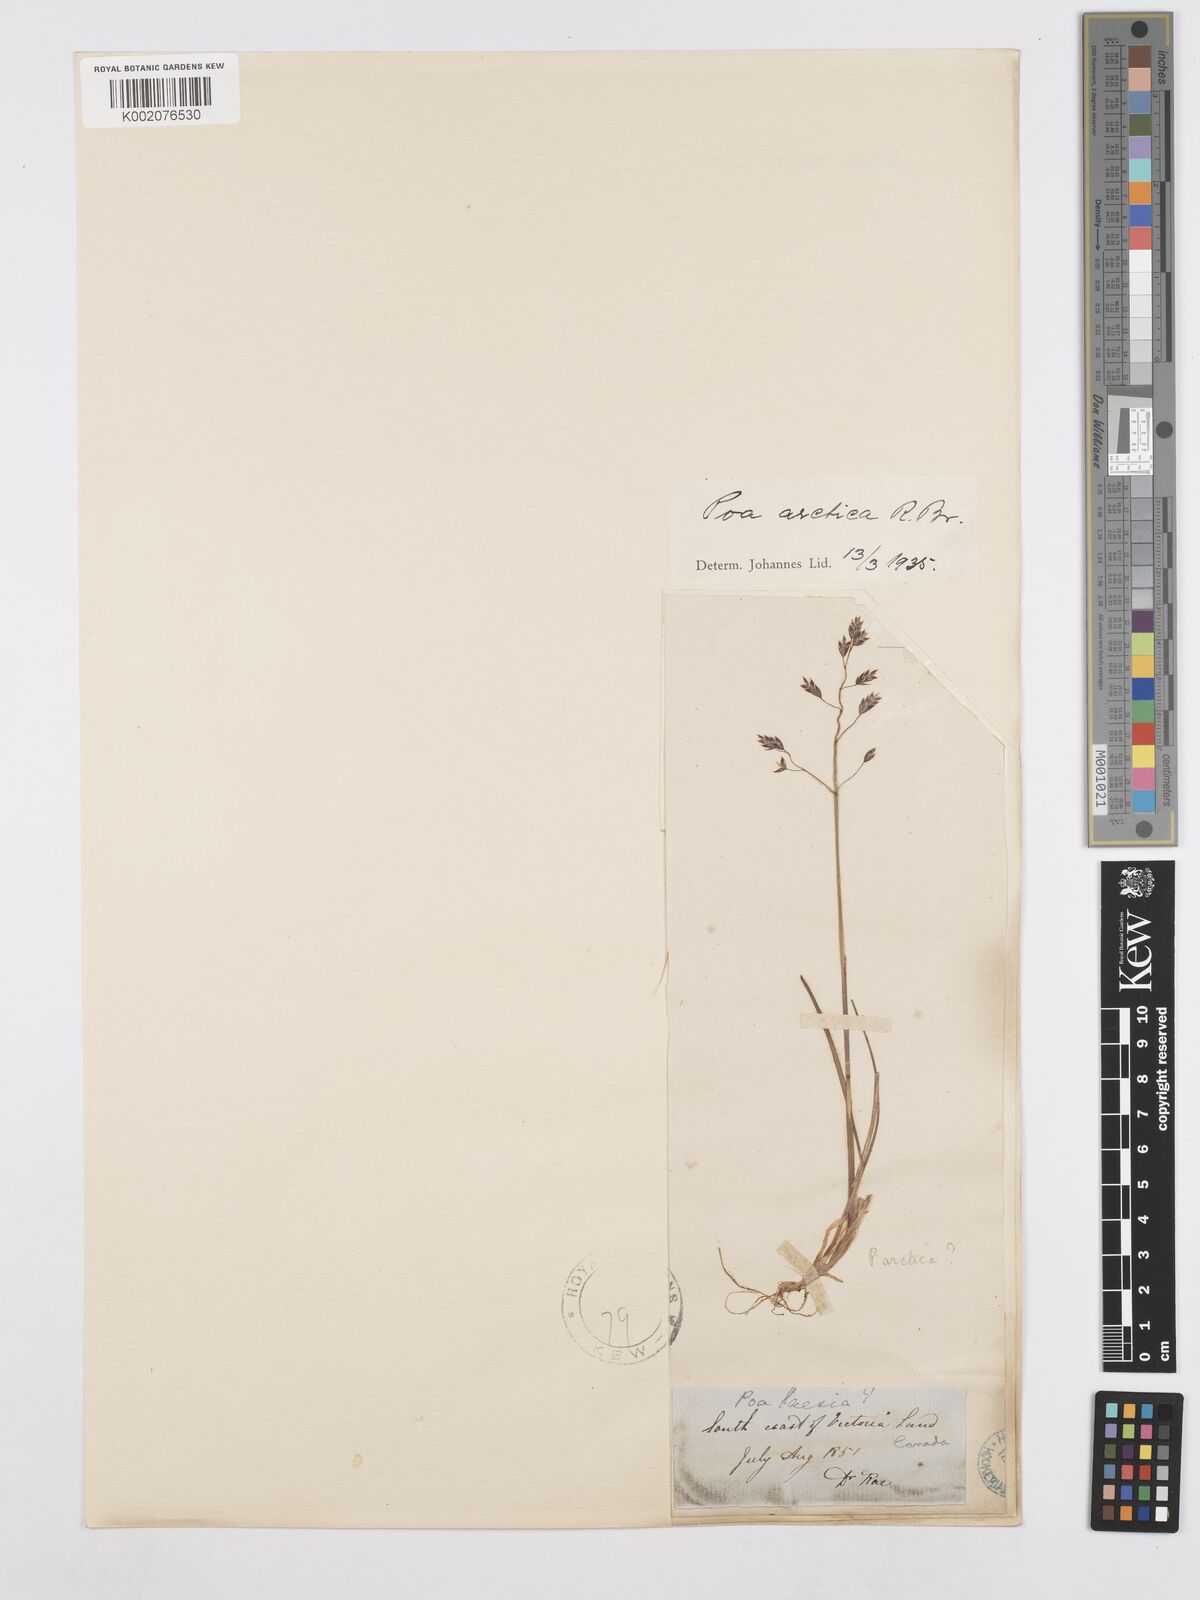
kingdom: Plantae
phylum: Tracheophyta
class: Liliopsida
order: Poales
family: Poaceae
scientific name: Poaceae
